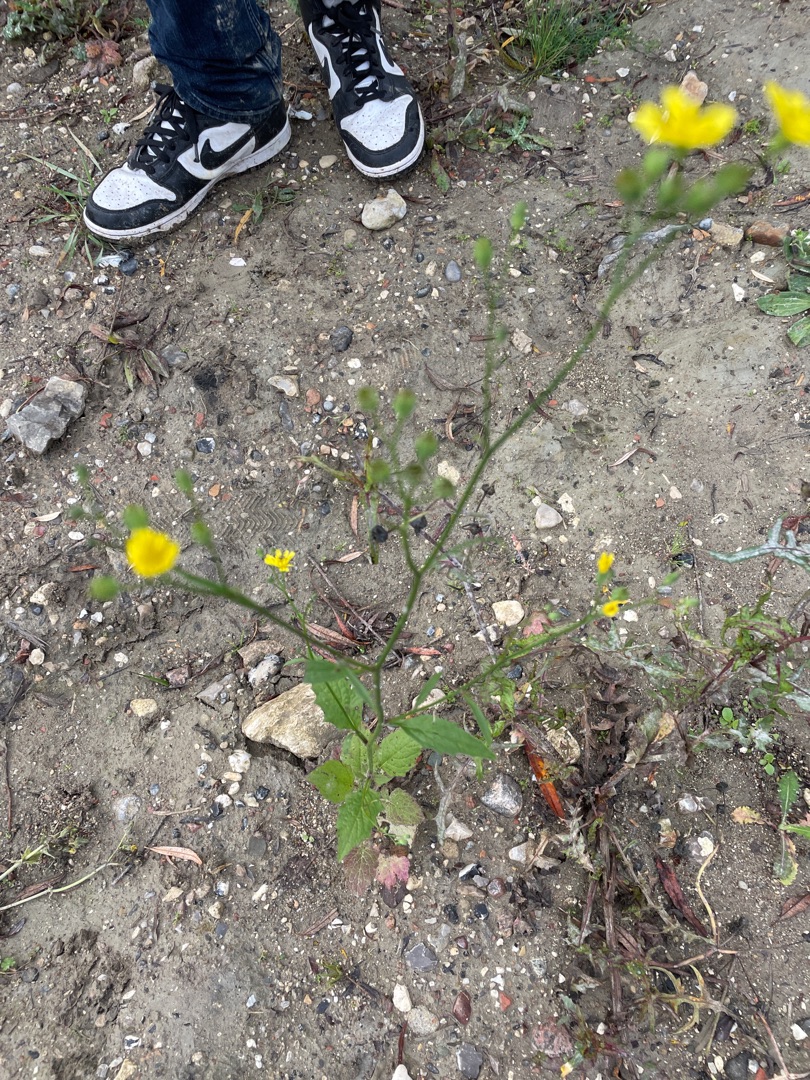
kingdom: Plantae
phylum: Tracheophyta
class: Magnoliopsida
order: Asterales
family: Asteraceae
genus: Lapsana
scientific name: Lapsana communis
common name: Haremad
